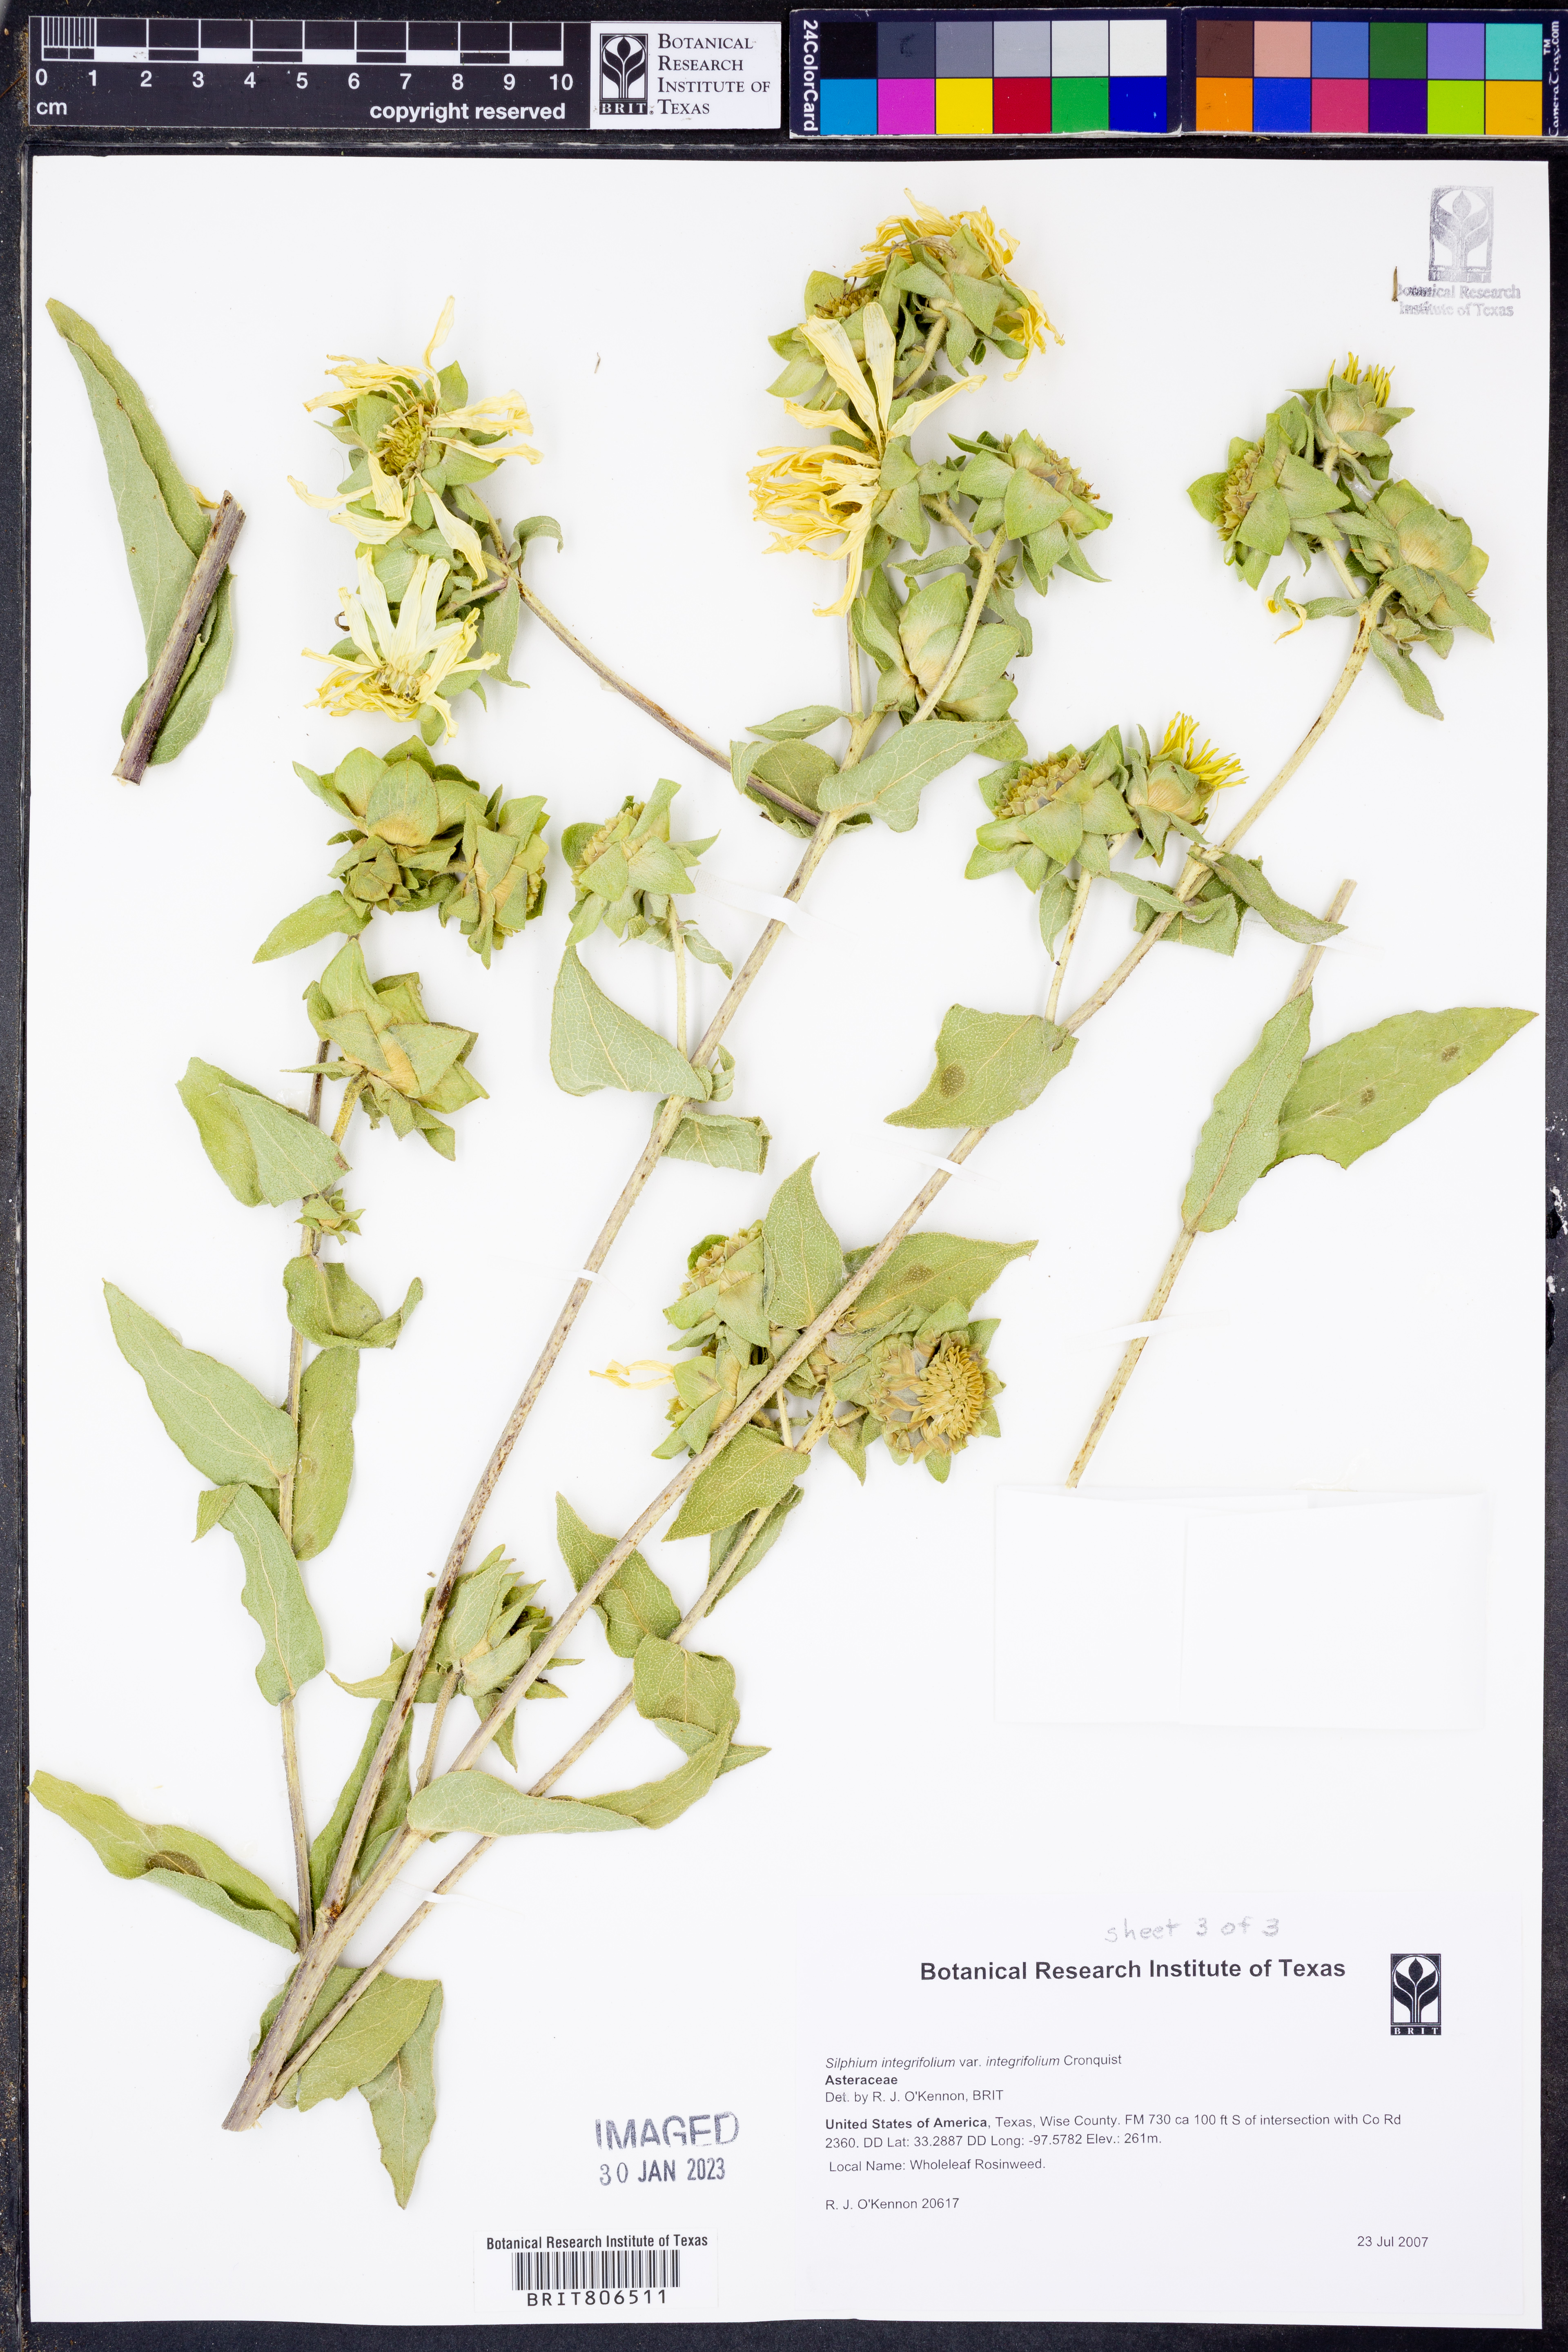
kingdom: Plantae
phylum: Tracheophyta
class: Magnoliopsida
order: Asterales
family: Asteraceae
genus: Silphium
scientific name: Silphium integrifolium
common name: Whole-leaf rosinweed
